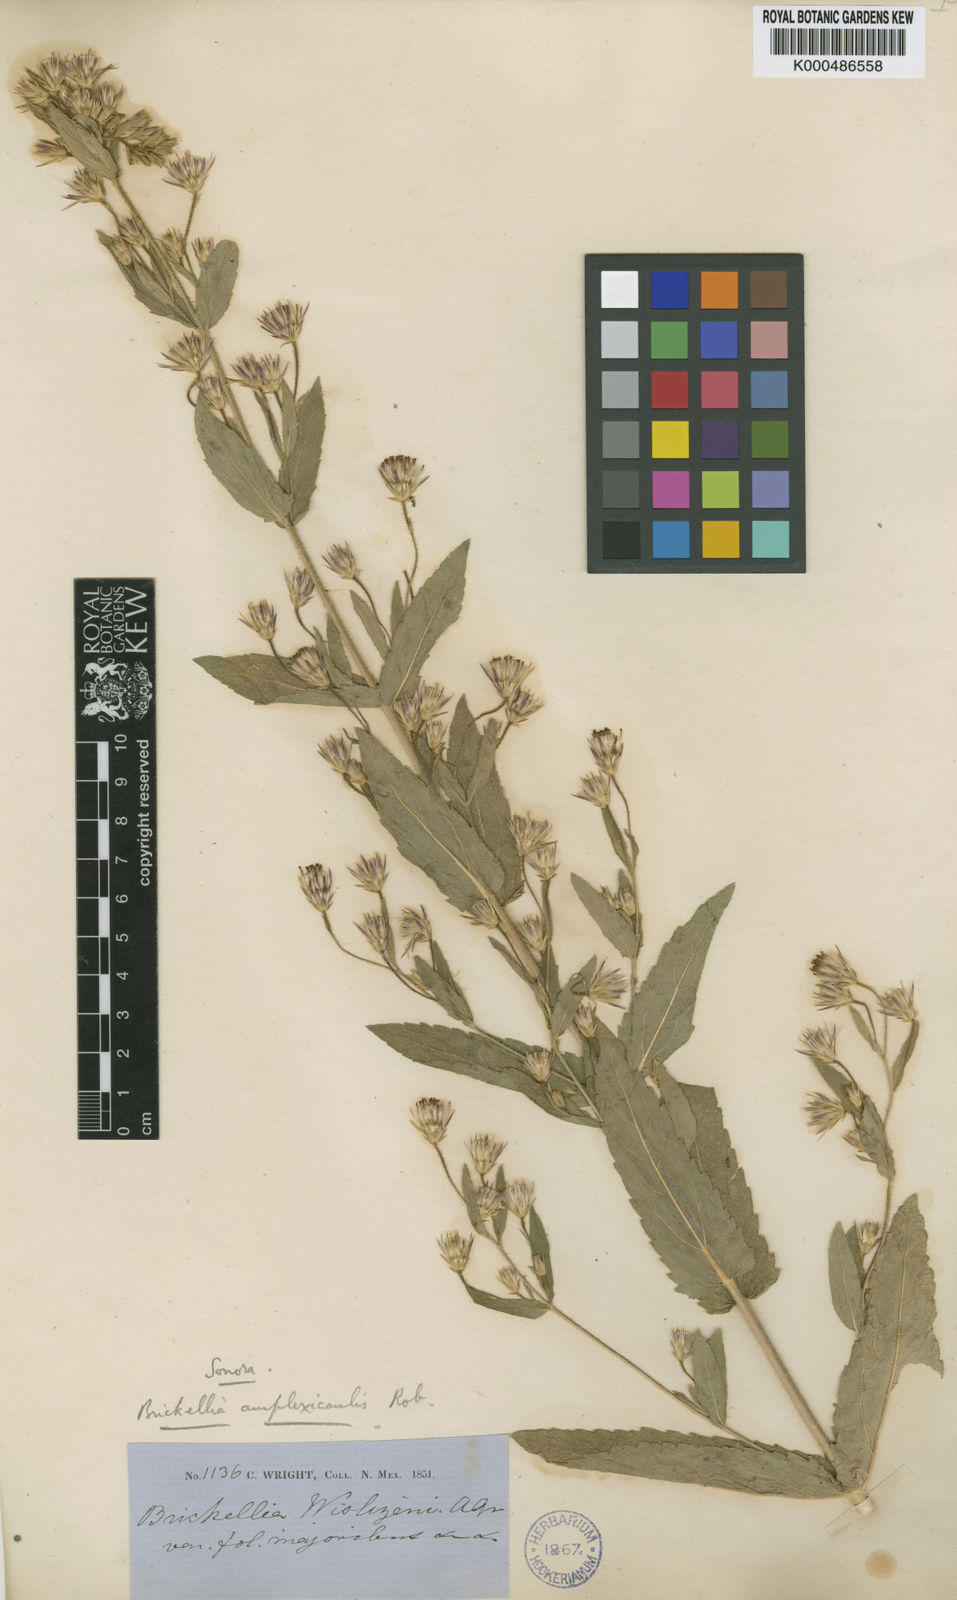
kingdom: Plantae
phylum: Tracheophyta
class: Magnoliopsida
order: Asterales
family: Asteraceae
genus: Brickellia
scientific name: Brickellia amplexicaulis
